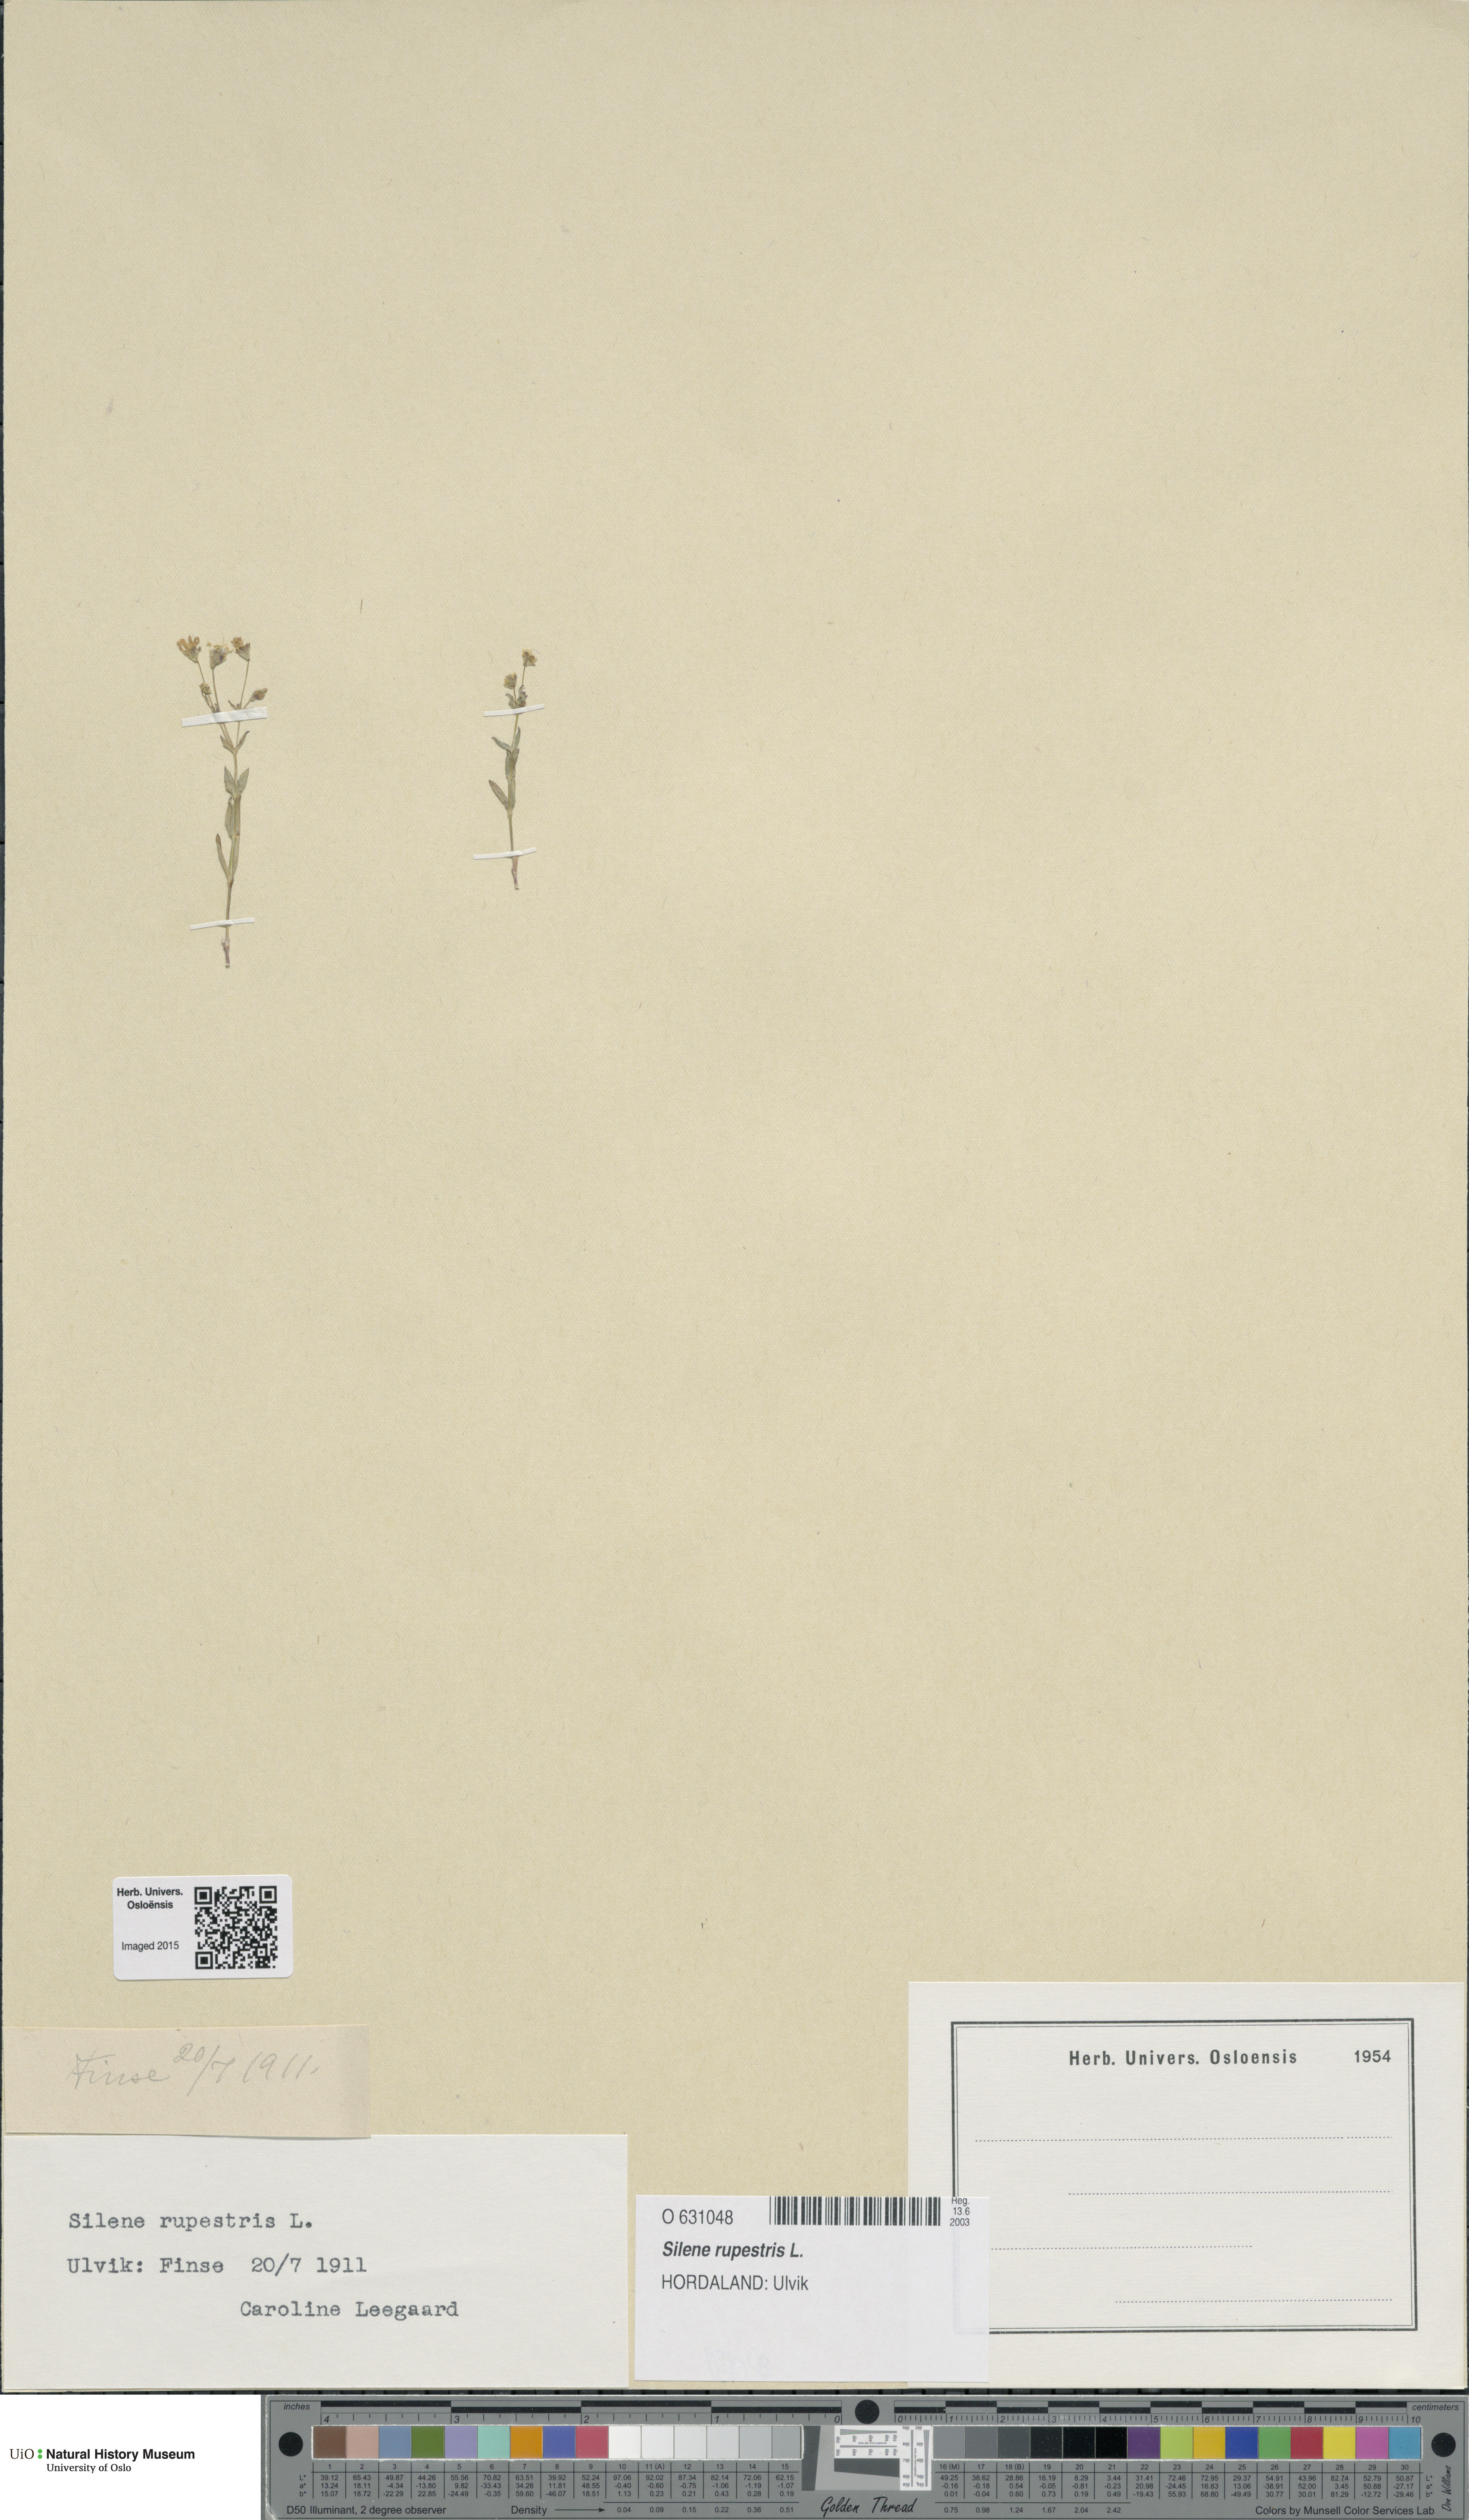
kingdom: Plantae
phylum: Tracheophyta
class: Magnoliopsida
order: Caryophyllales
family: Caryophyllaceae
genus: Atocion
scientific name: Atocion rupestre
